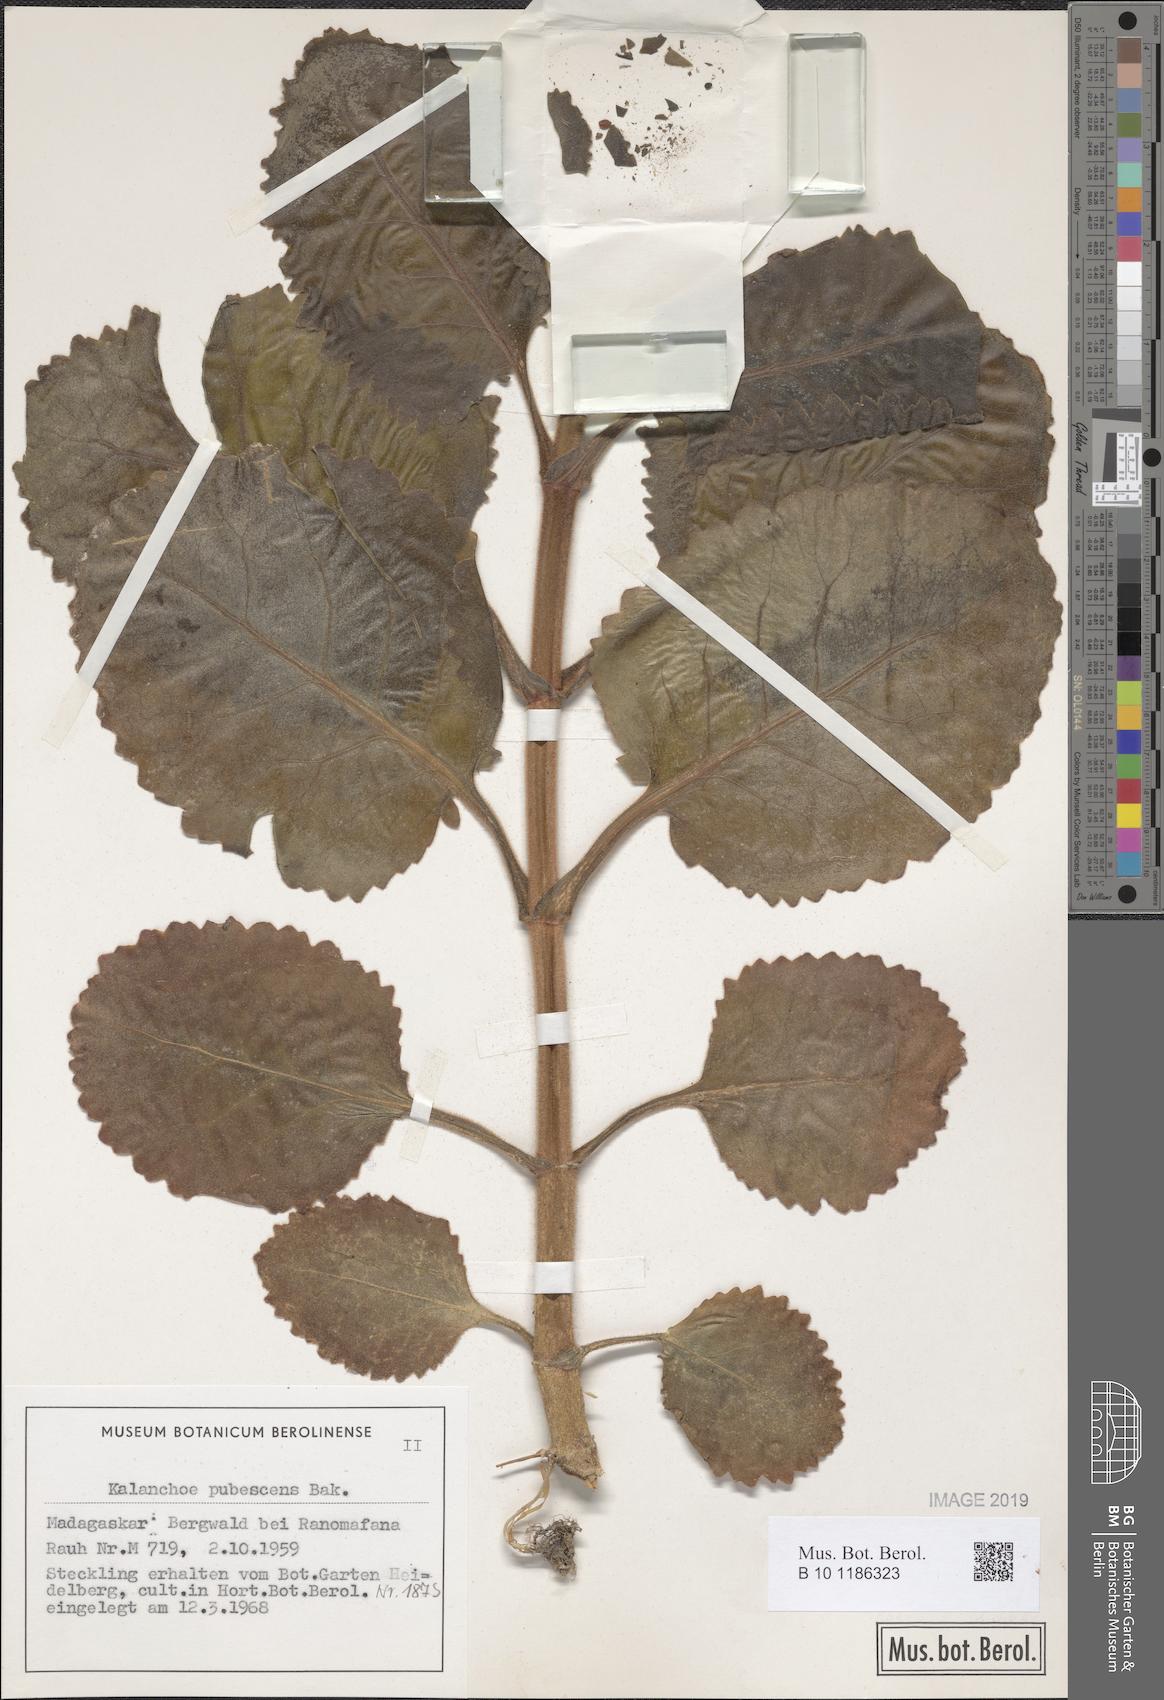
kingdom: Plantae
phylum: Tracheophyta
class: Magnoliopsida
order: Saxifragales
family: Crassulaceae
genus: Kalanchoe
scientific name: Kalanchoe pubescens
